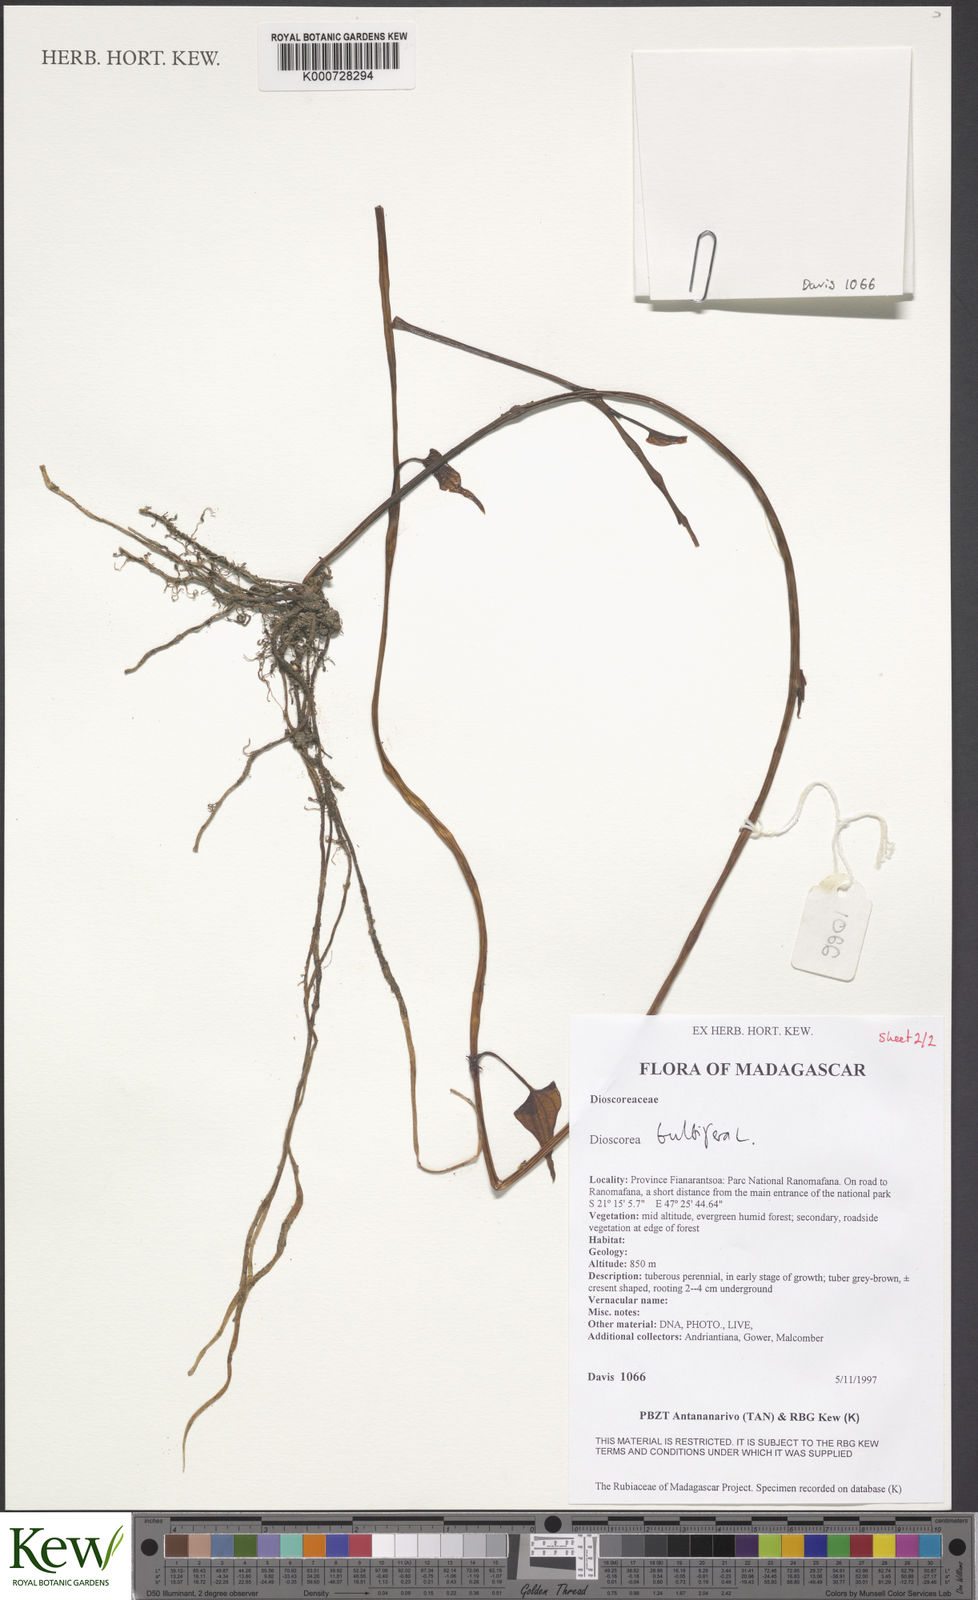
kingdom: Plantae
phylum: Tracheophyta
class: Liliopsida
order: Dioscoreales
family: Dioscoreaceae
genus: Dioscorea
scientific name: Dioscorea bulbifera
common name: Air yam
